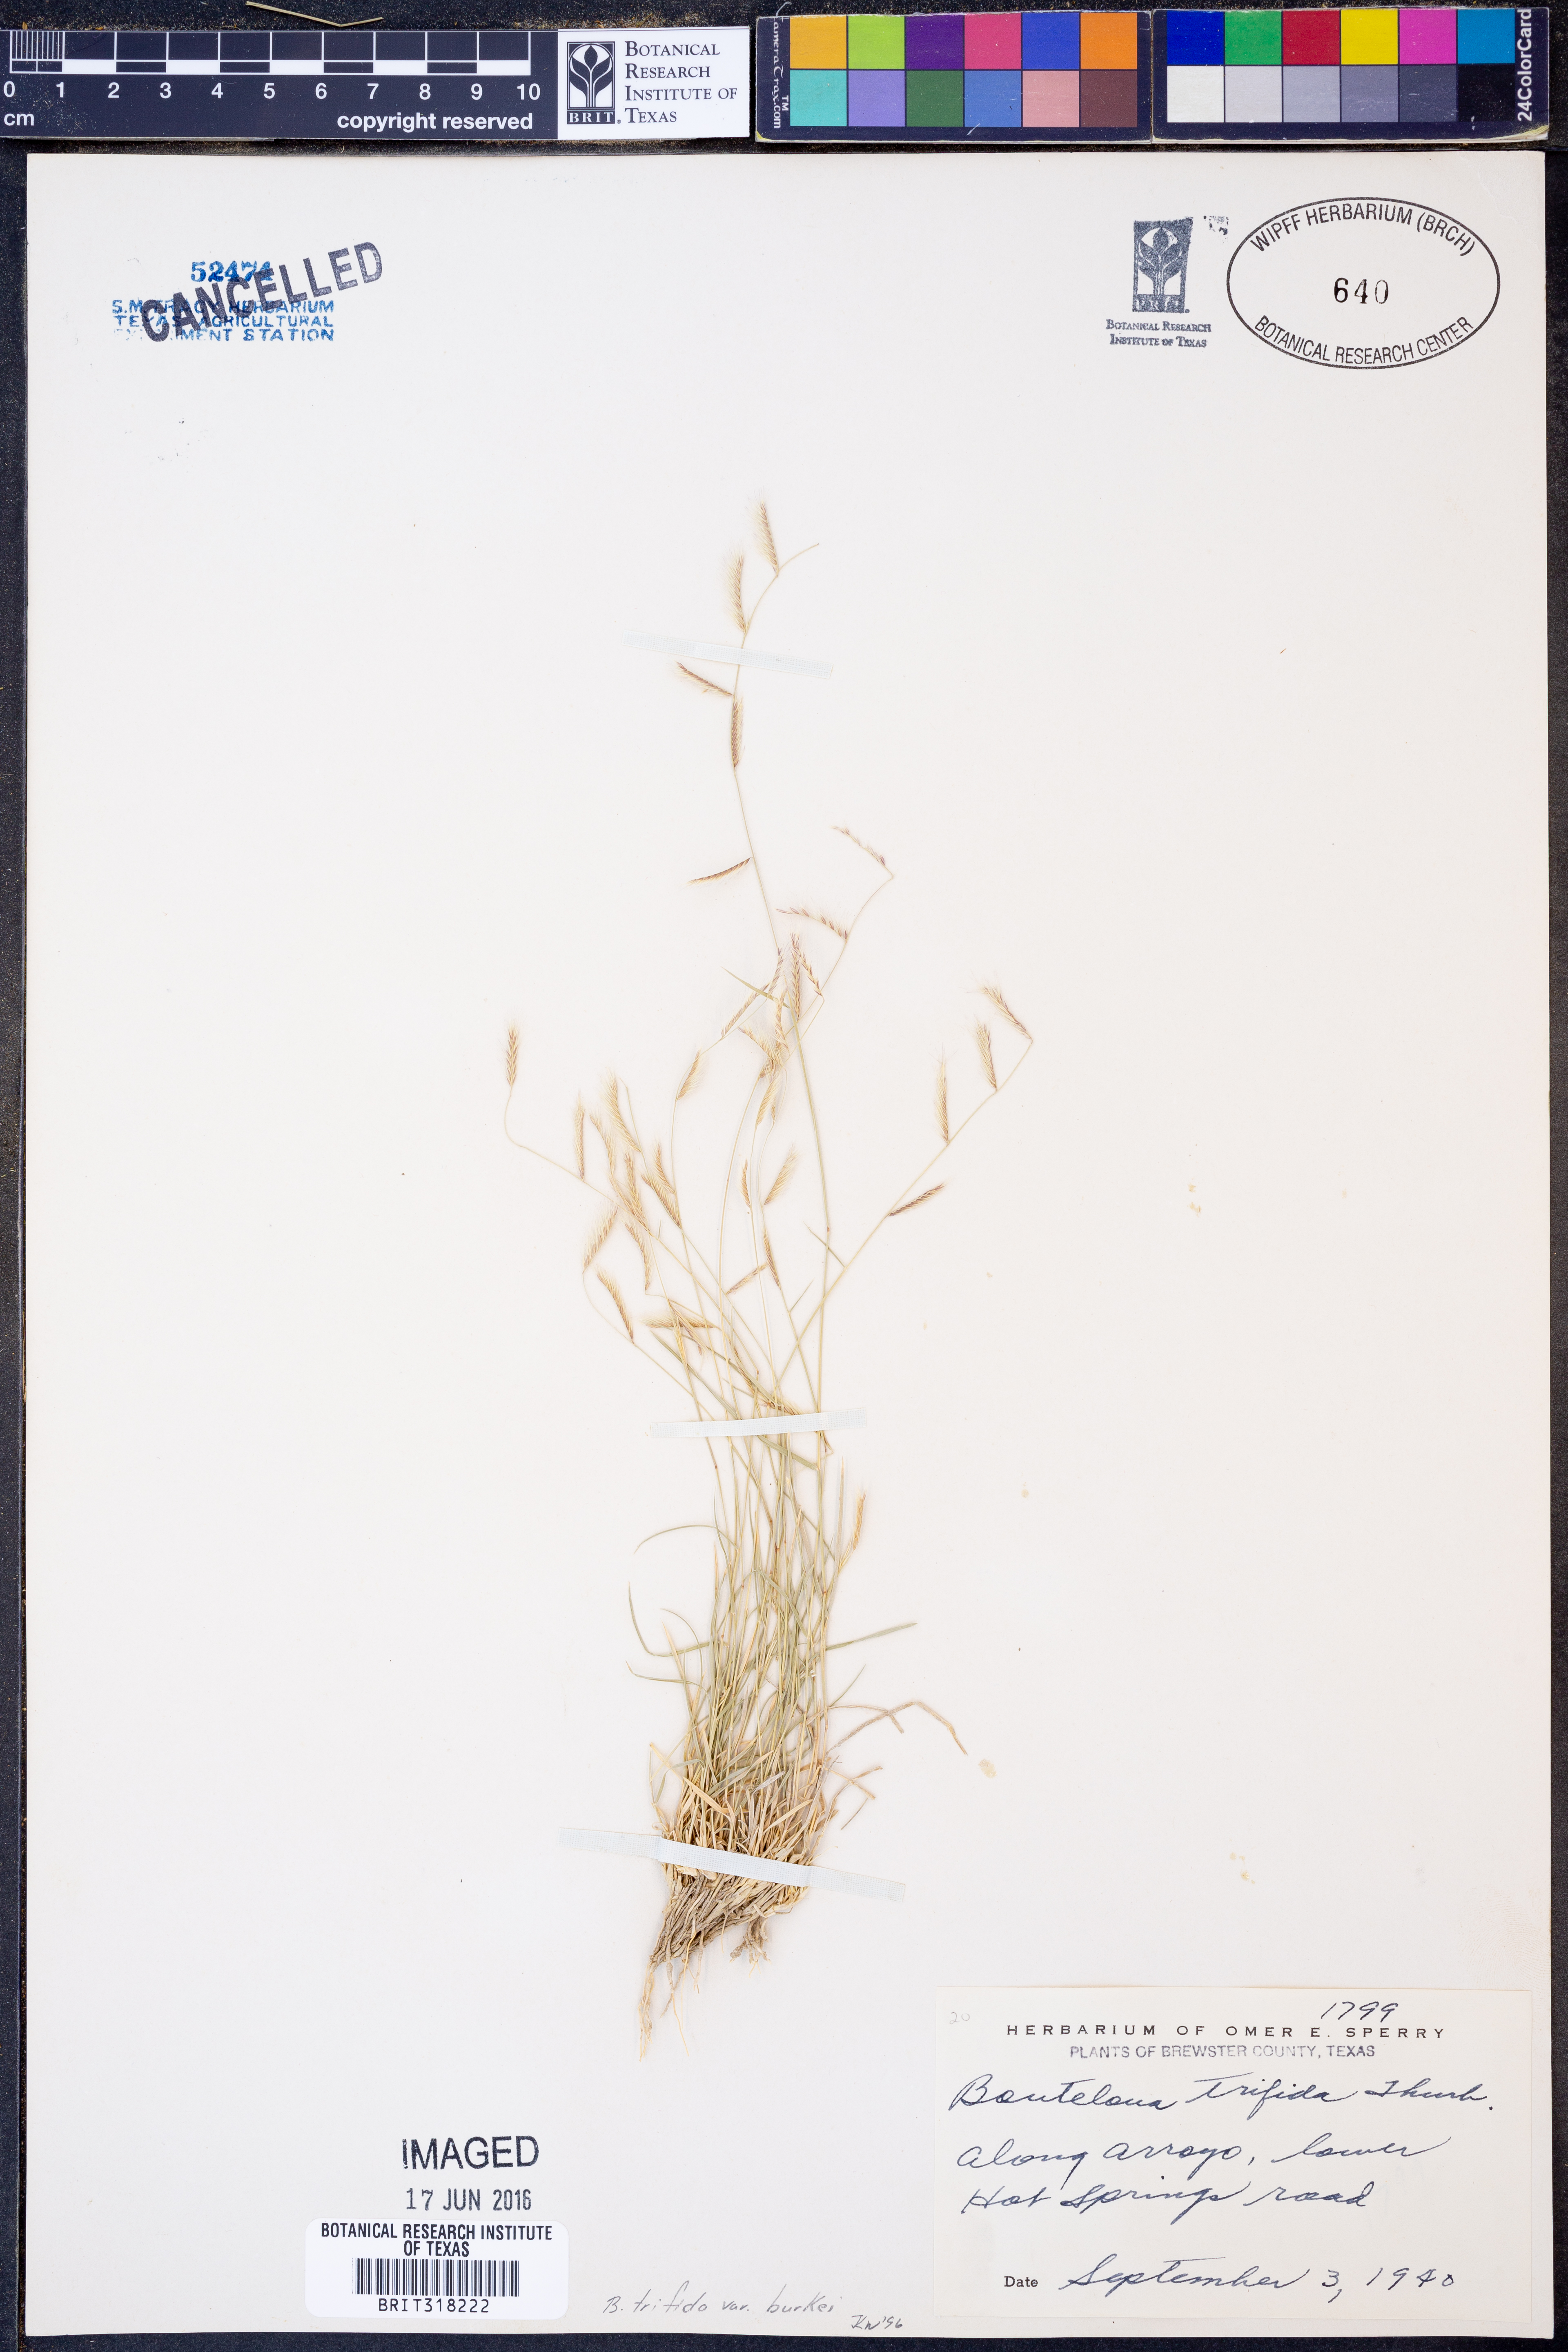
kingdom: Plantae
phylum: Tracheophyta
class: Liliopsida
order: Poales
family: Poaceae
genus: Bouteloua
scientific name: Bouteloua trifida
